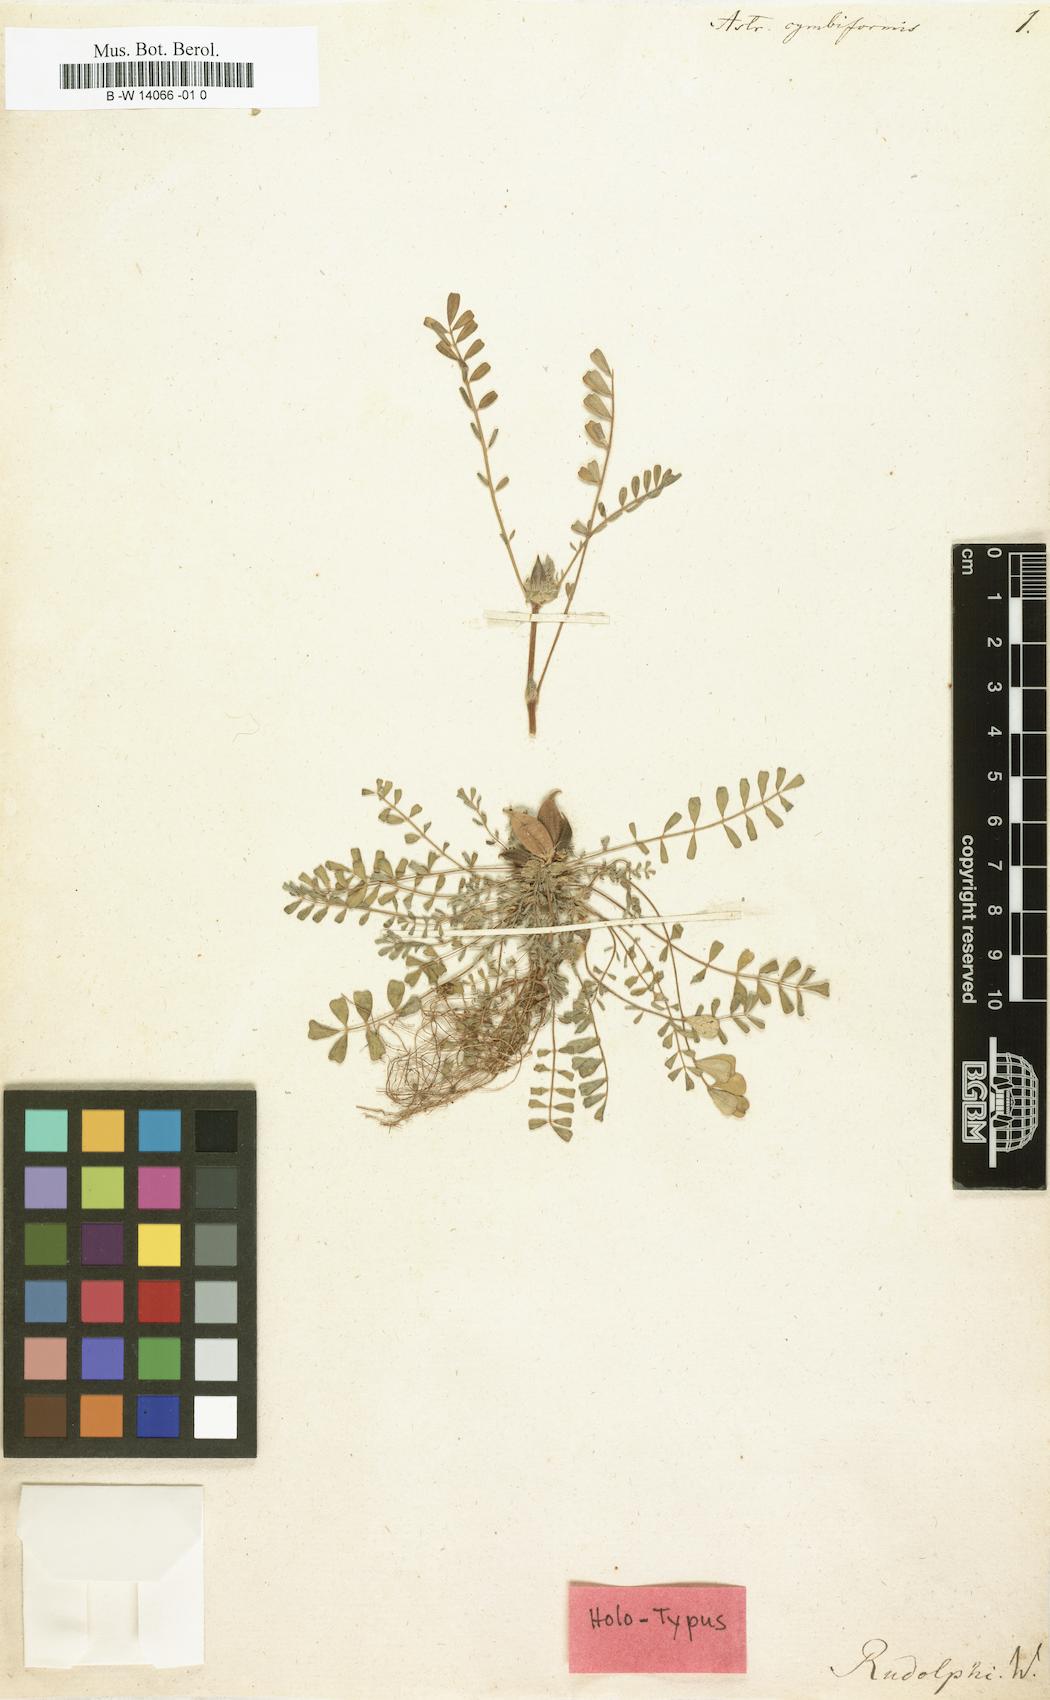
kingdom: Plantae
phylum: Tracheophyta
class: Magnoliopsida
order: Fabales
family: Fabaceae
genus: Astragalus
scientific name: Astragalus cymbiformis
